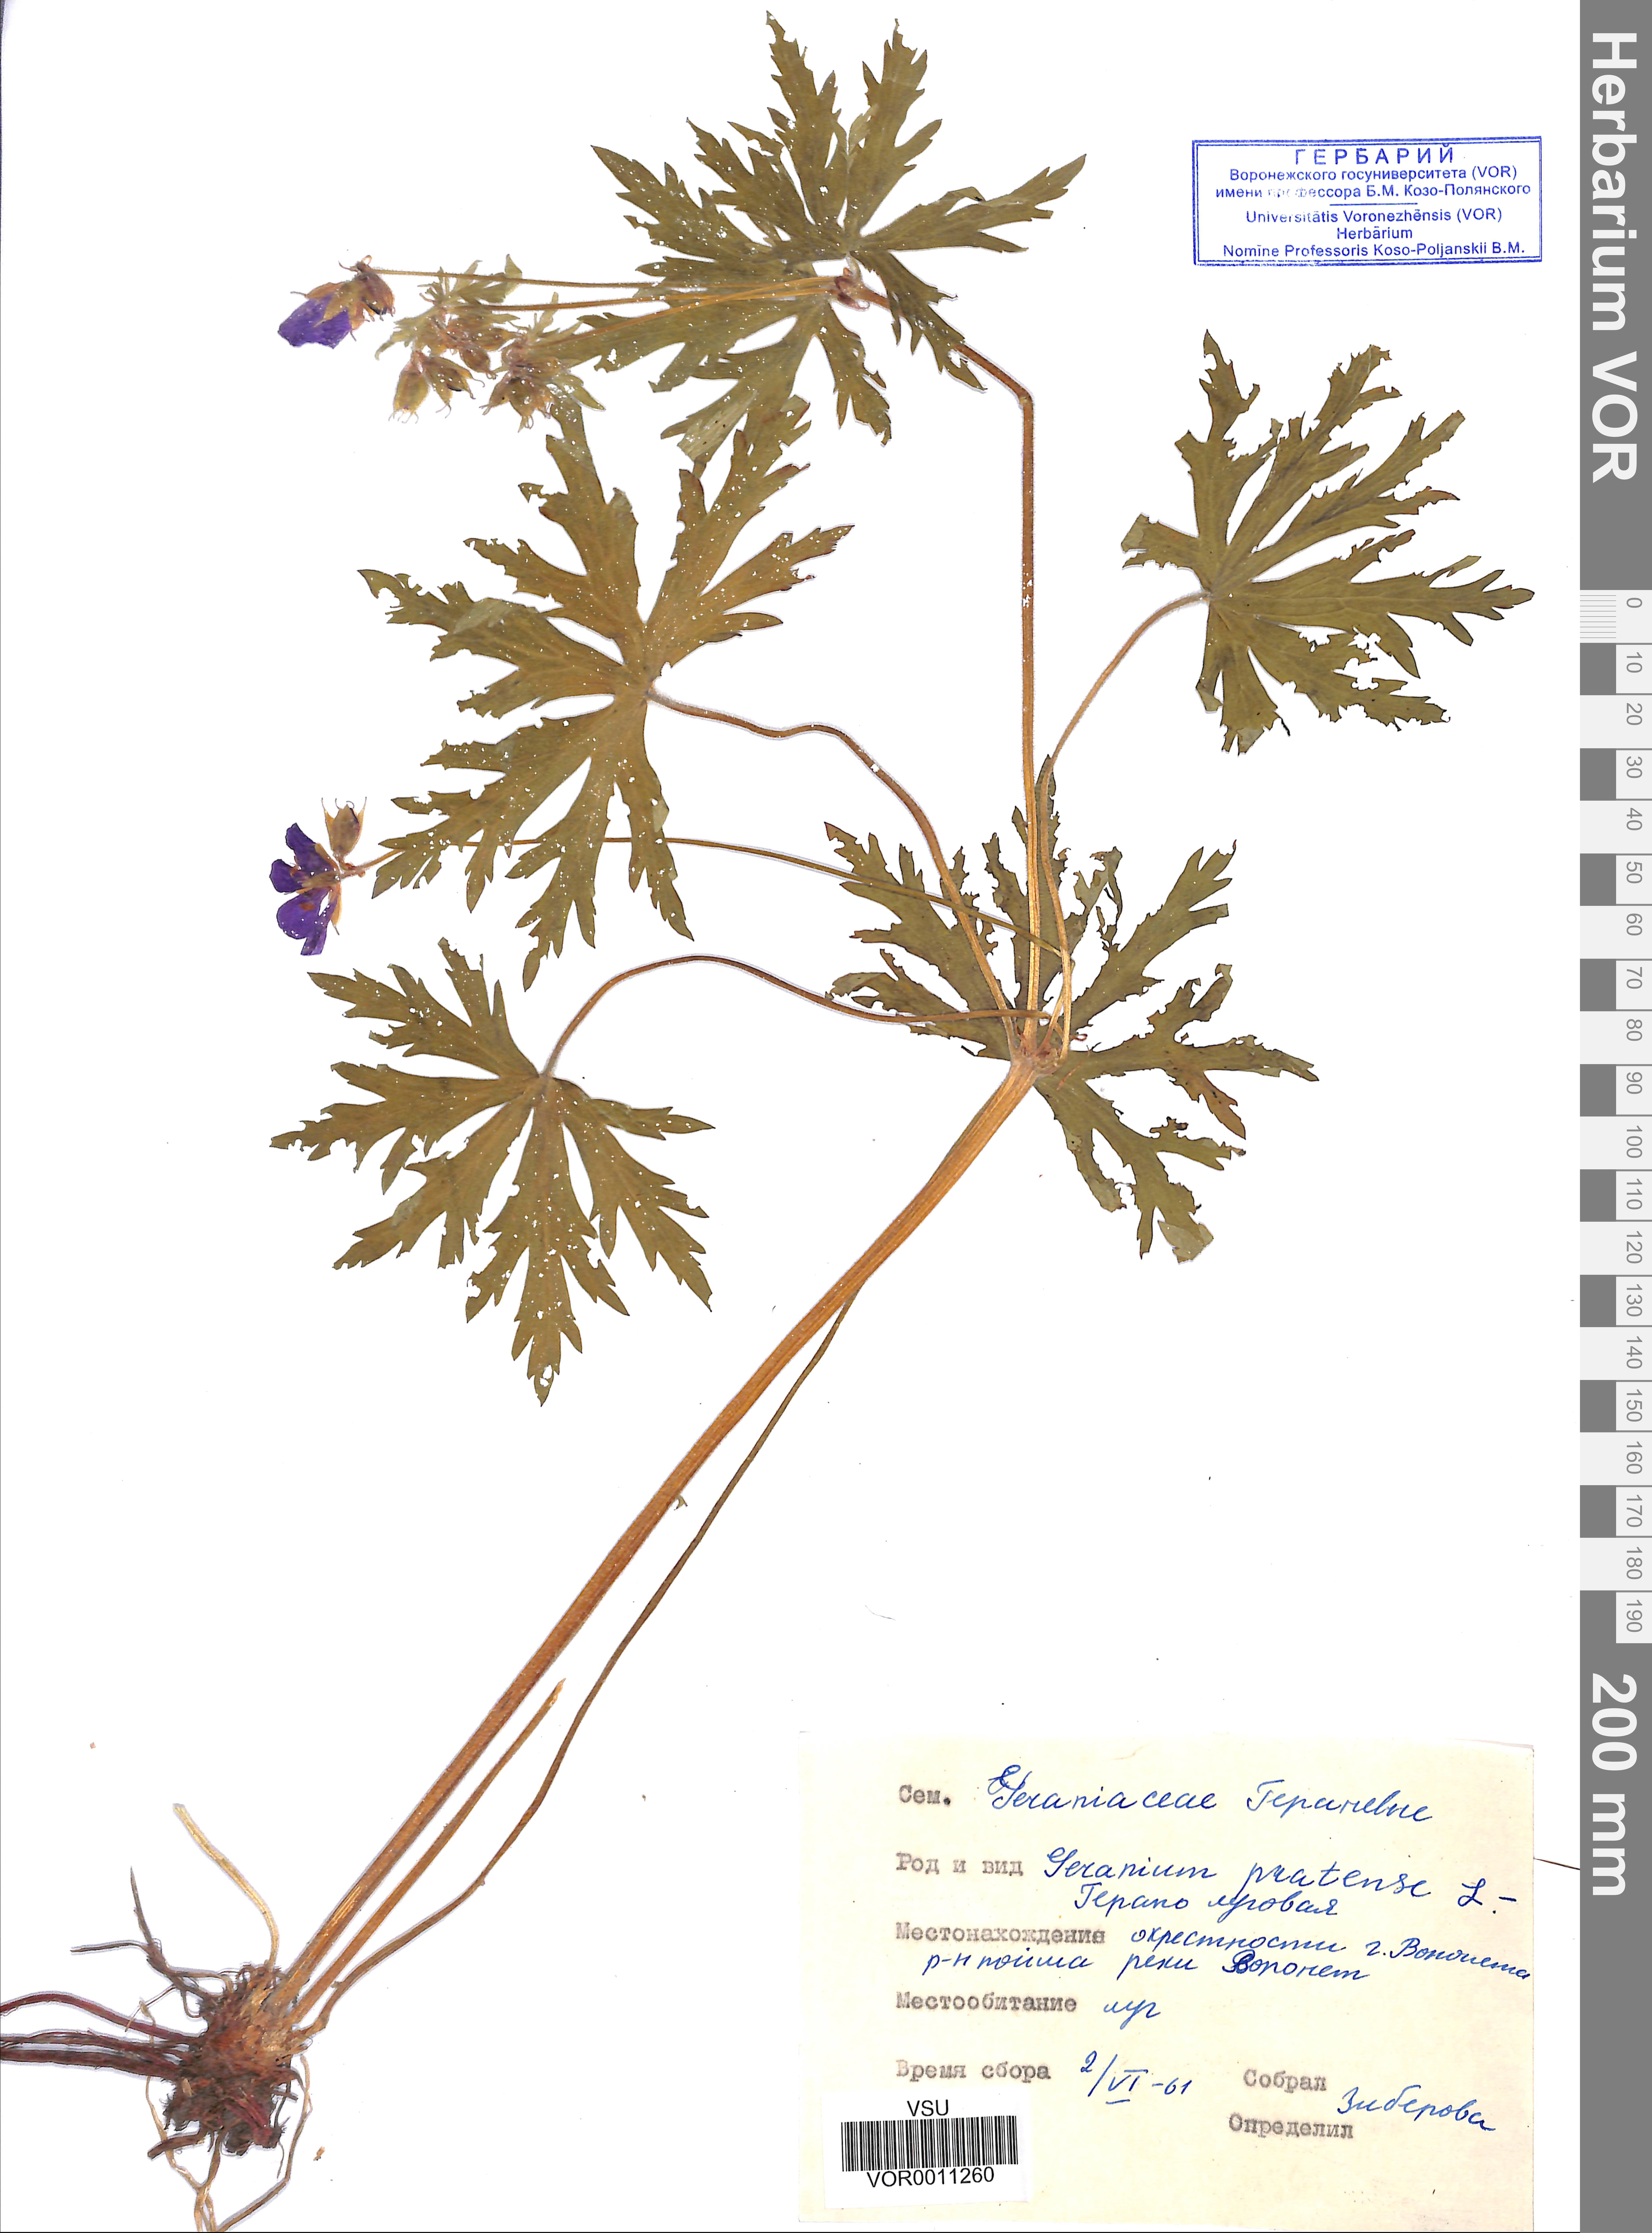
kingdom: Plantae
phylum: Tracheophyta
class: Magnoliopsida
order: Geraniales
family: Geraniaceae
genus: Geranium
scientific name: Geranium pratense
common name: Meadow crane's-bill
